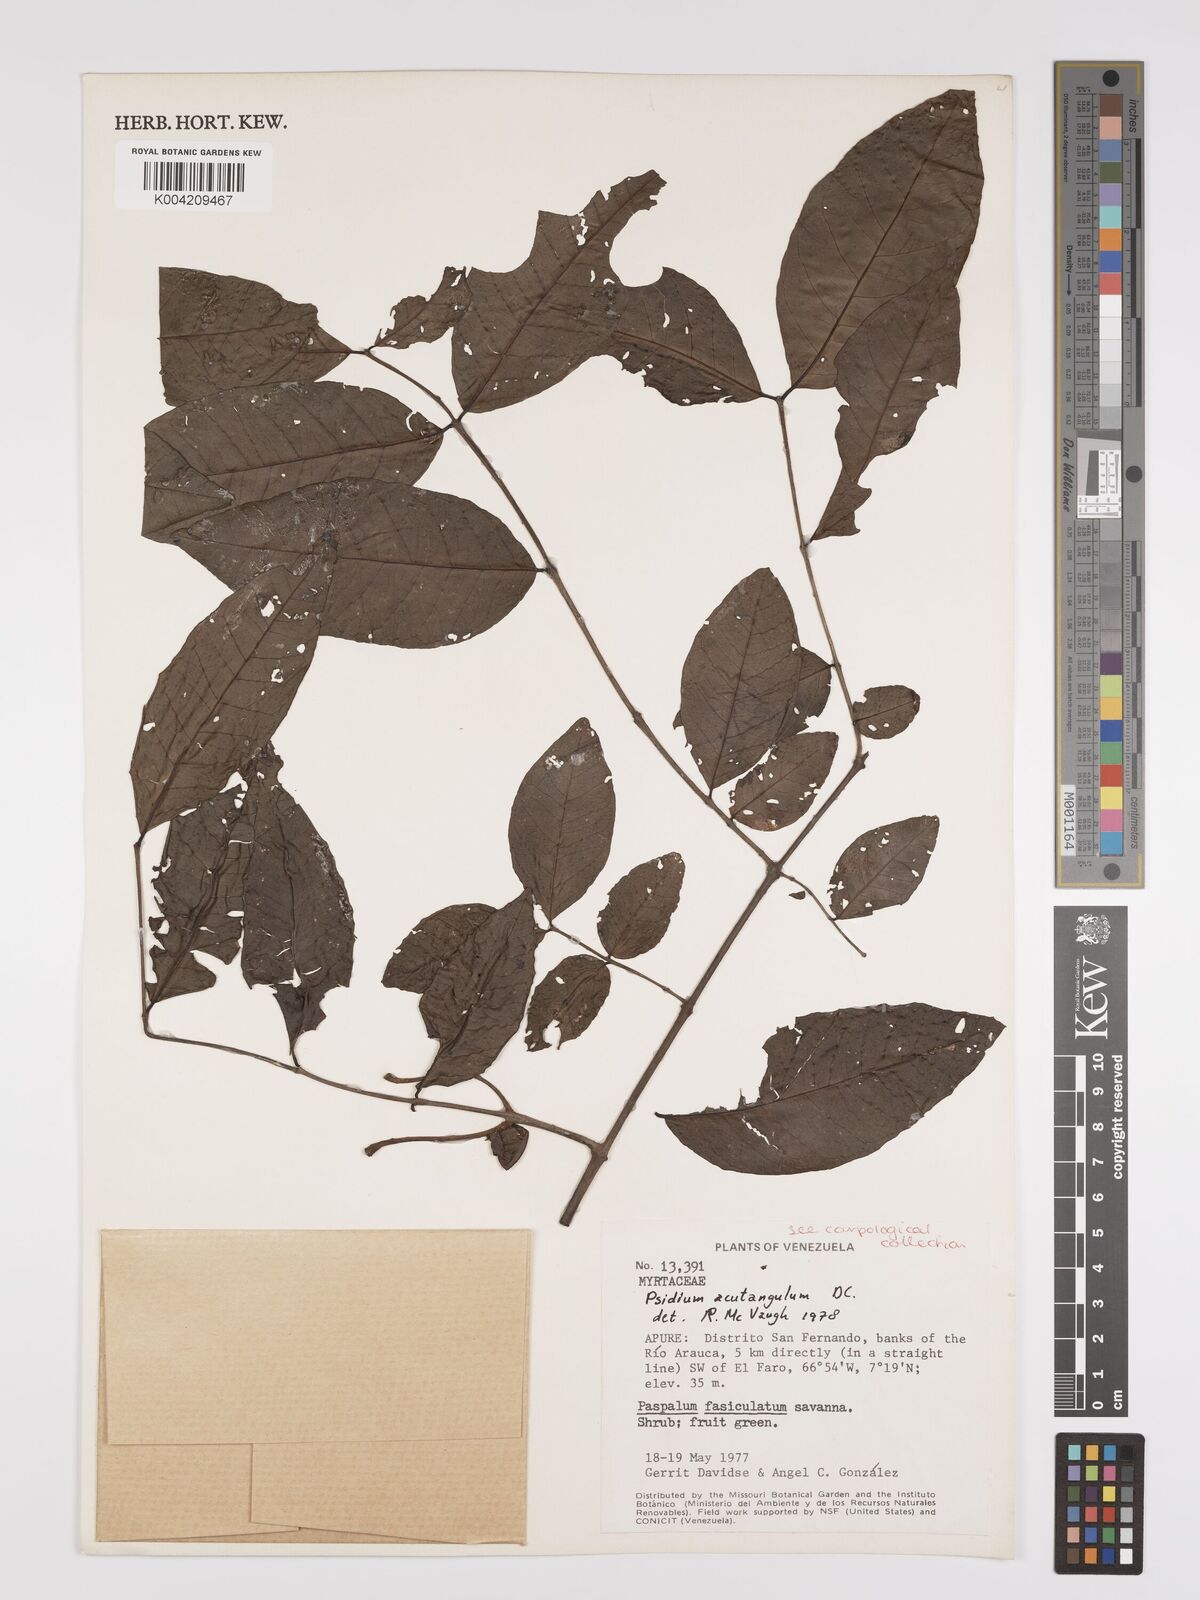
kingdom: Plantae
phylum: Tracheophyta
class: Magnoliopsida
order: Myrtales
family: Myrtaceae
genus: Psidium
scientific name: Psidium acutangulum
